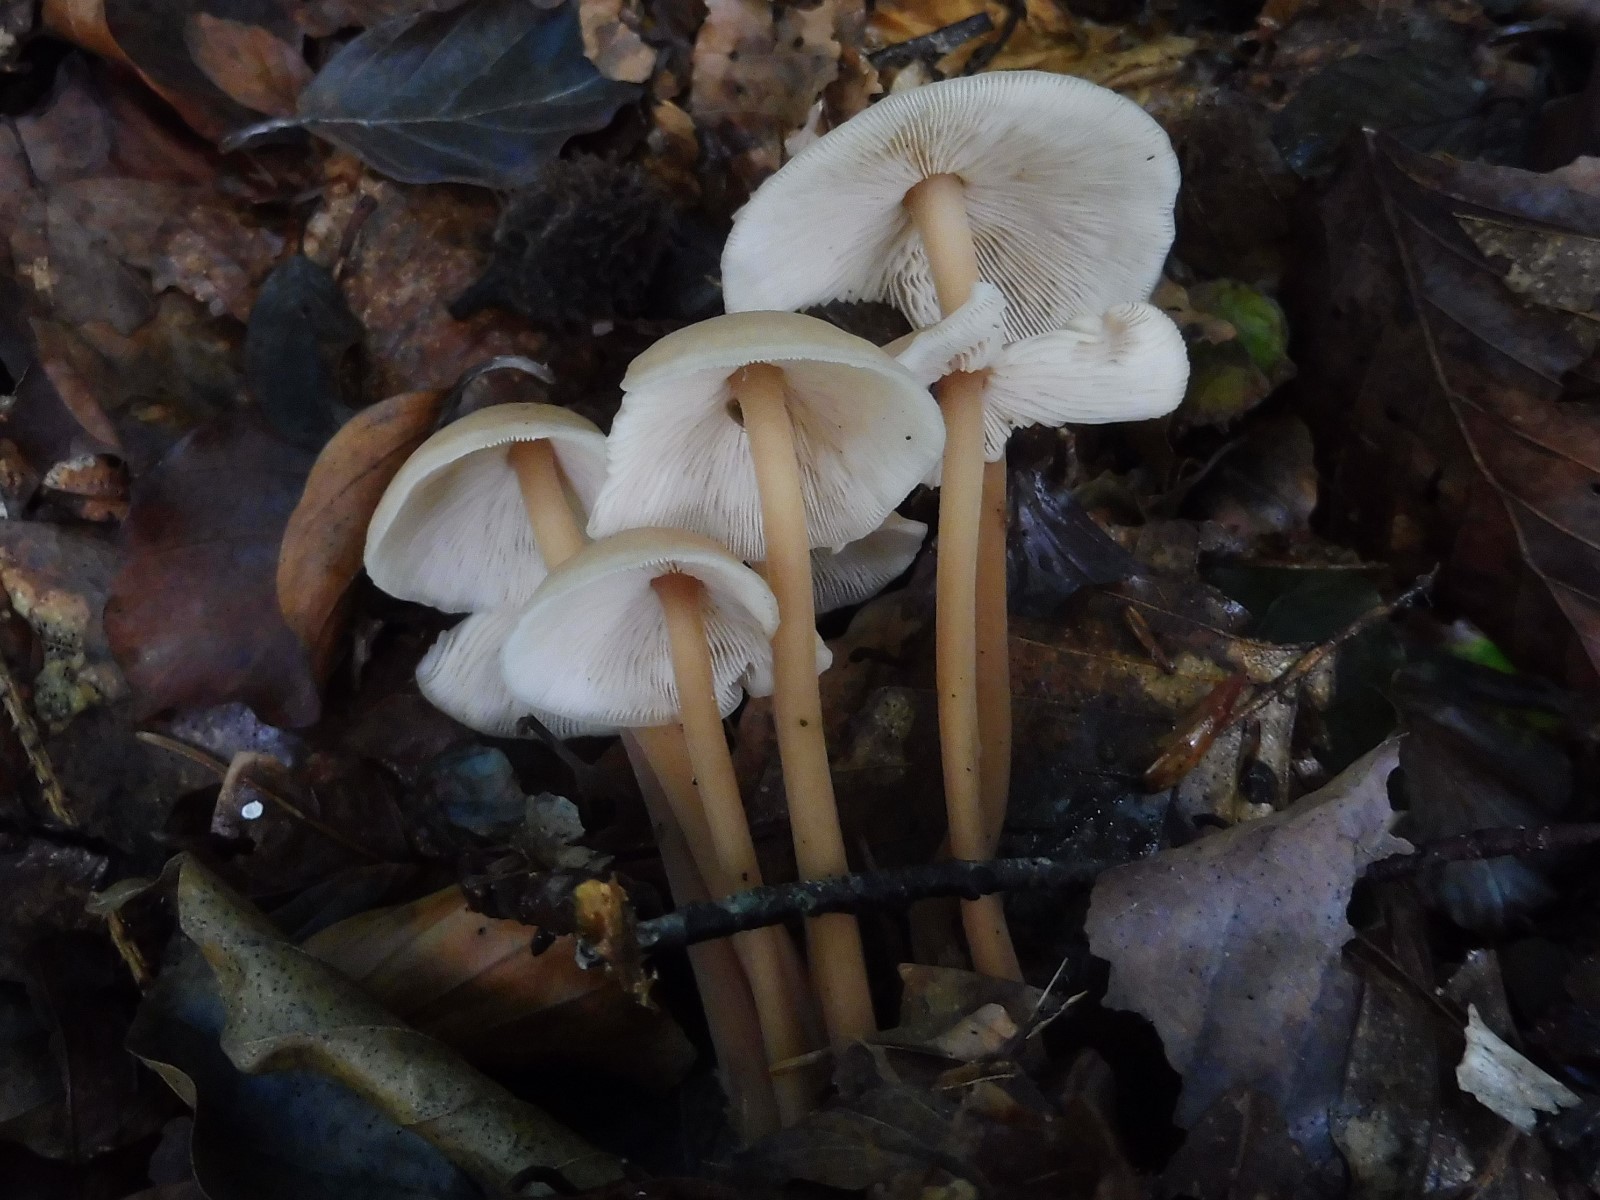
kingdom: Fungi
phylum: Basidiomycota
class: Agaricomycetes
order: Agaricales
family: Omphalotaceae
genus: Collybiopsis
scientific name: Collybiopsis confluens
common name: knippe-fladhat
